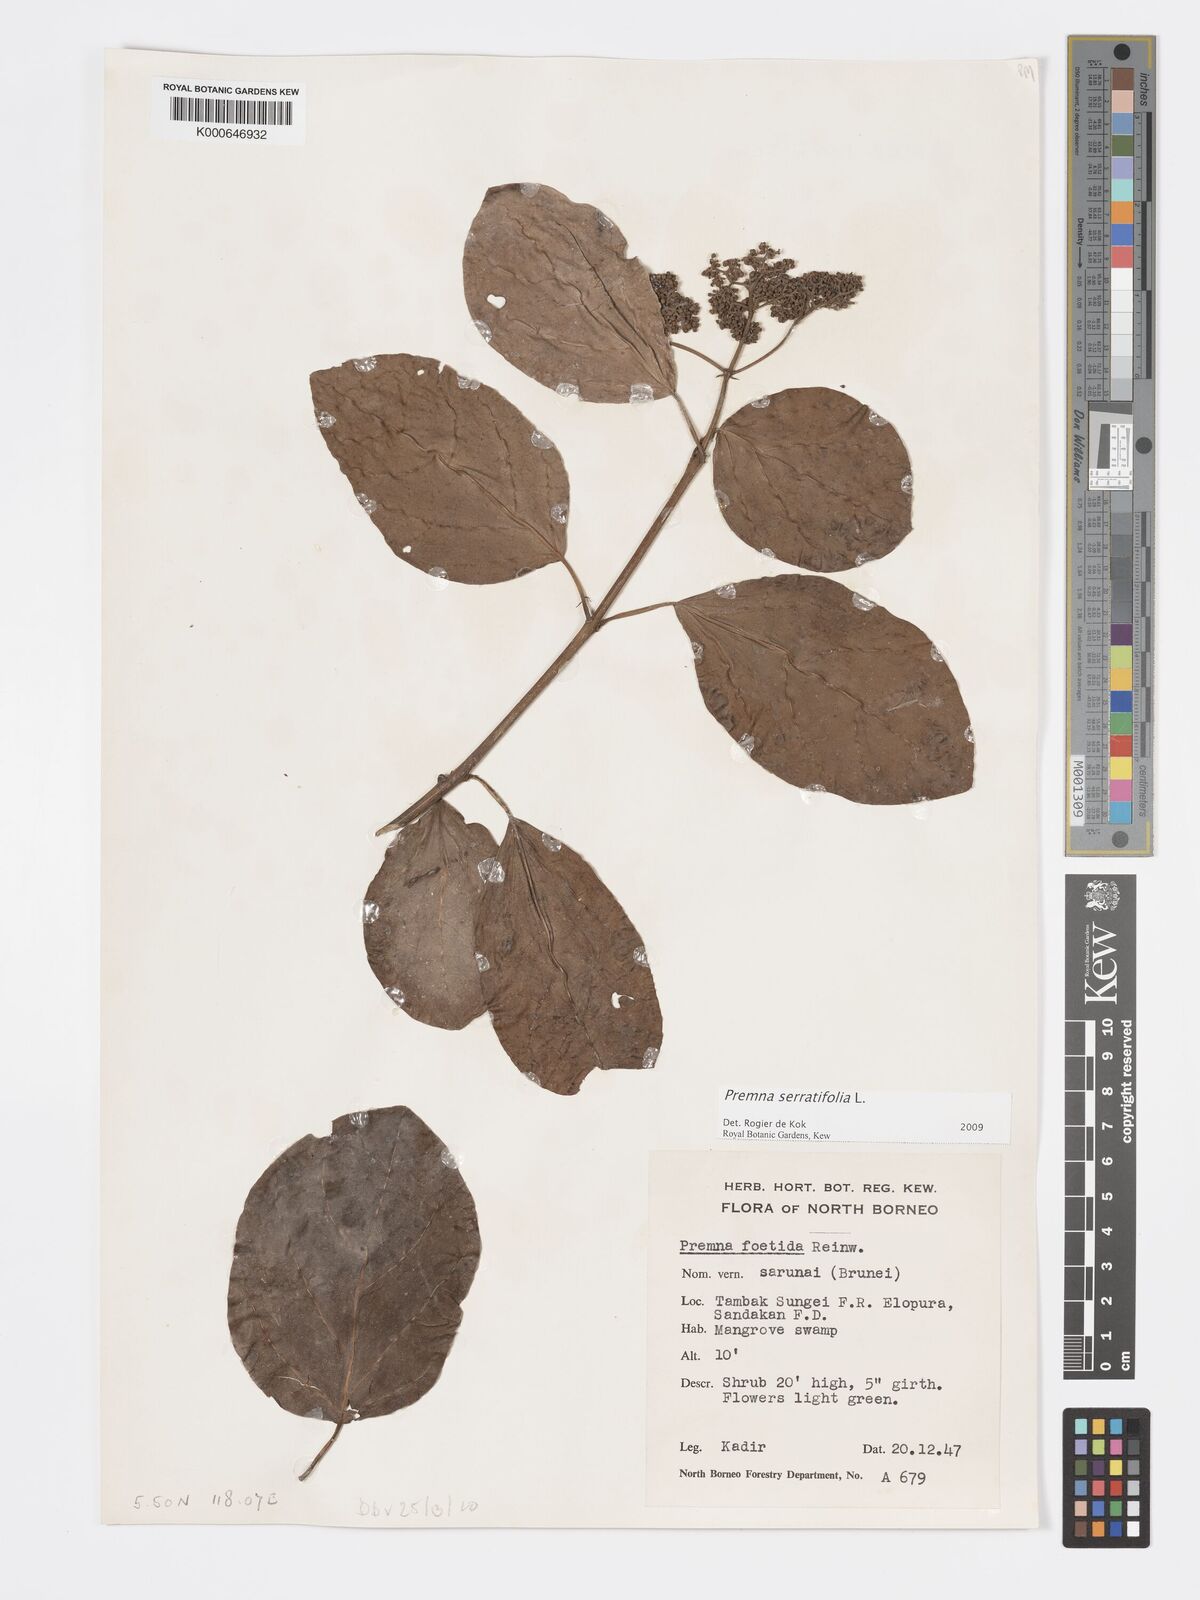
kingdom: Plantae
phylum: Tracheophyta
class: Magnoliopsida
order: Lamiales
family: Lamiaceae
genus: Premna
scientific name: Premna serratifolia
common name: Bastard guelder
